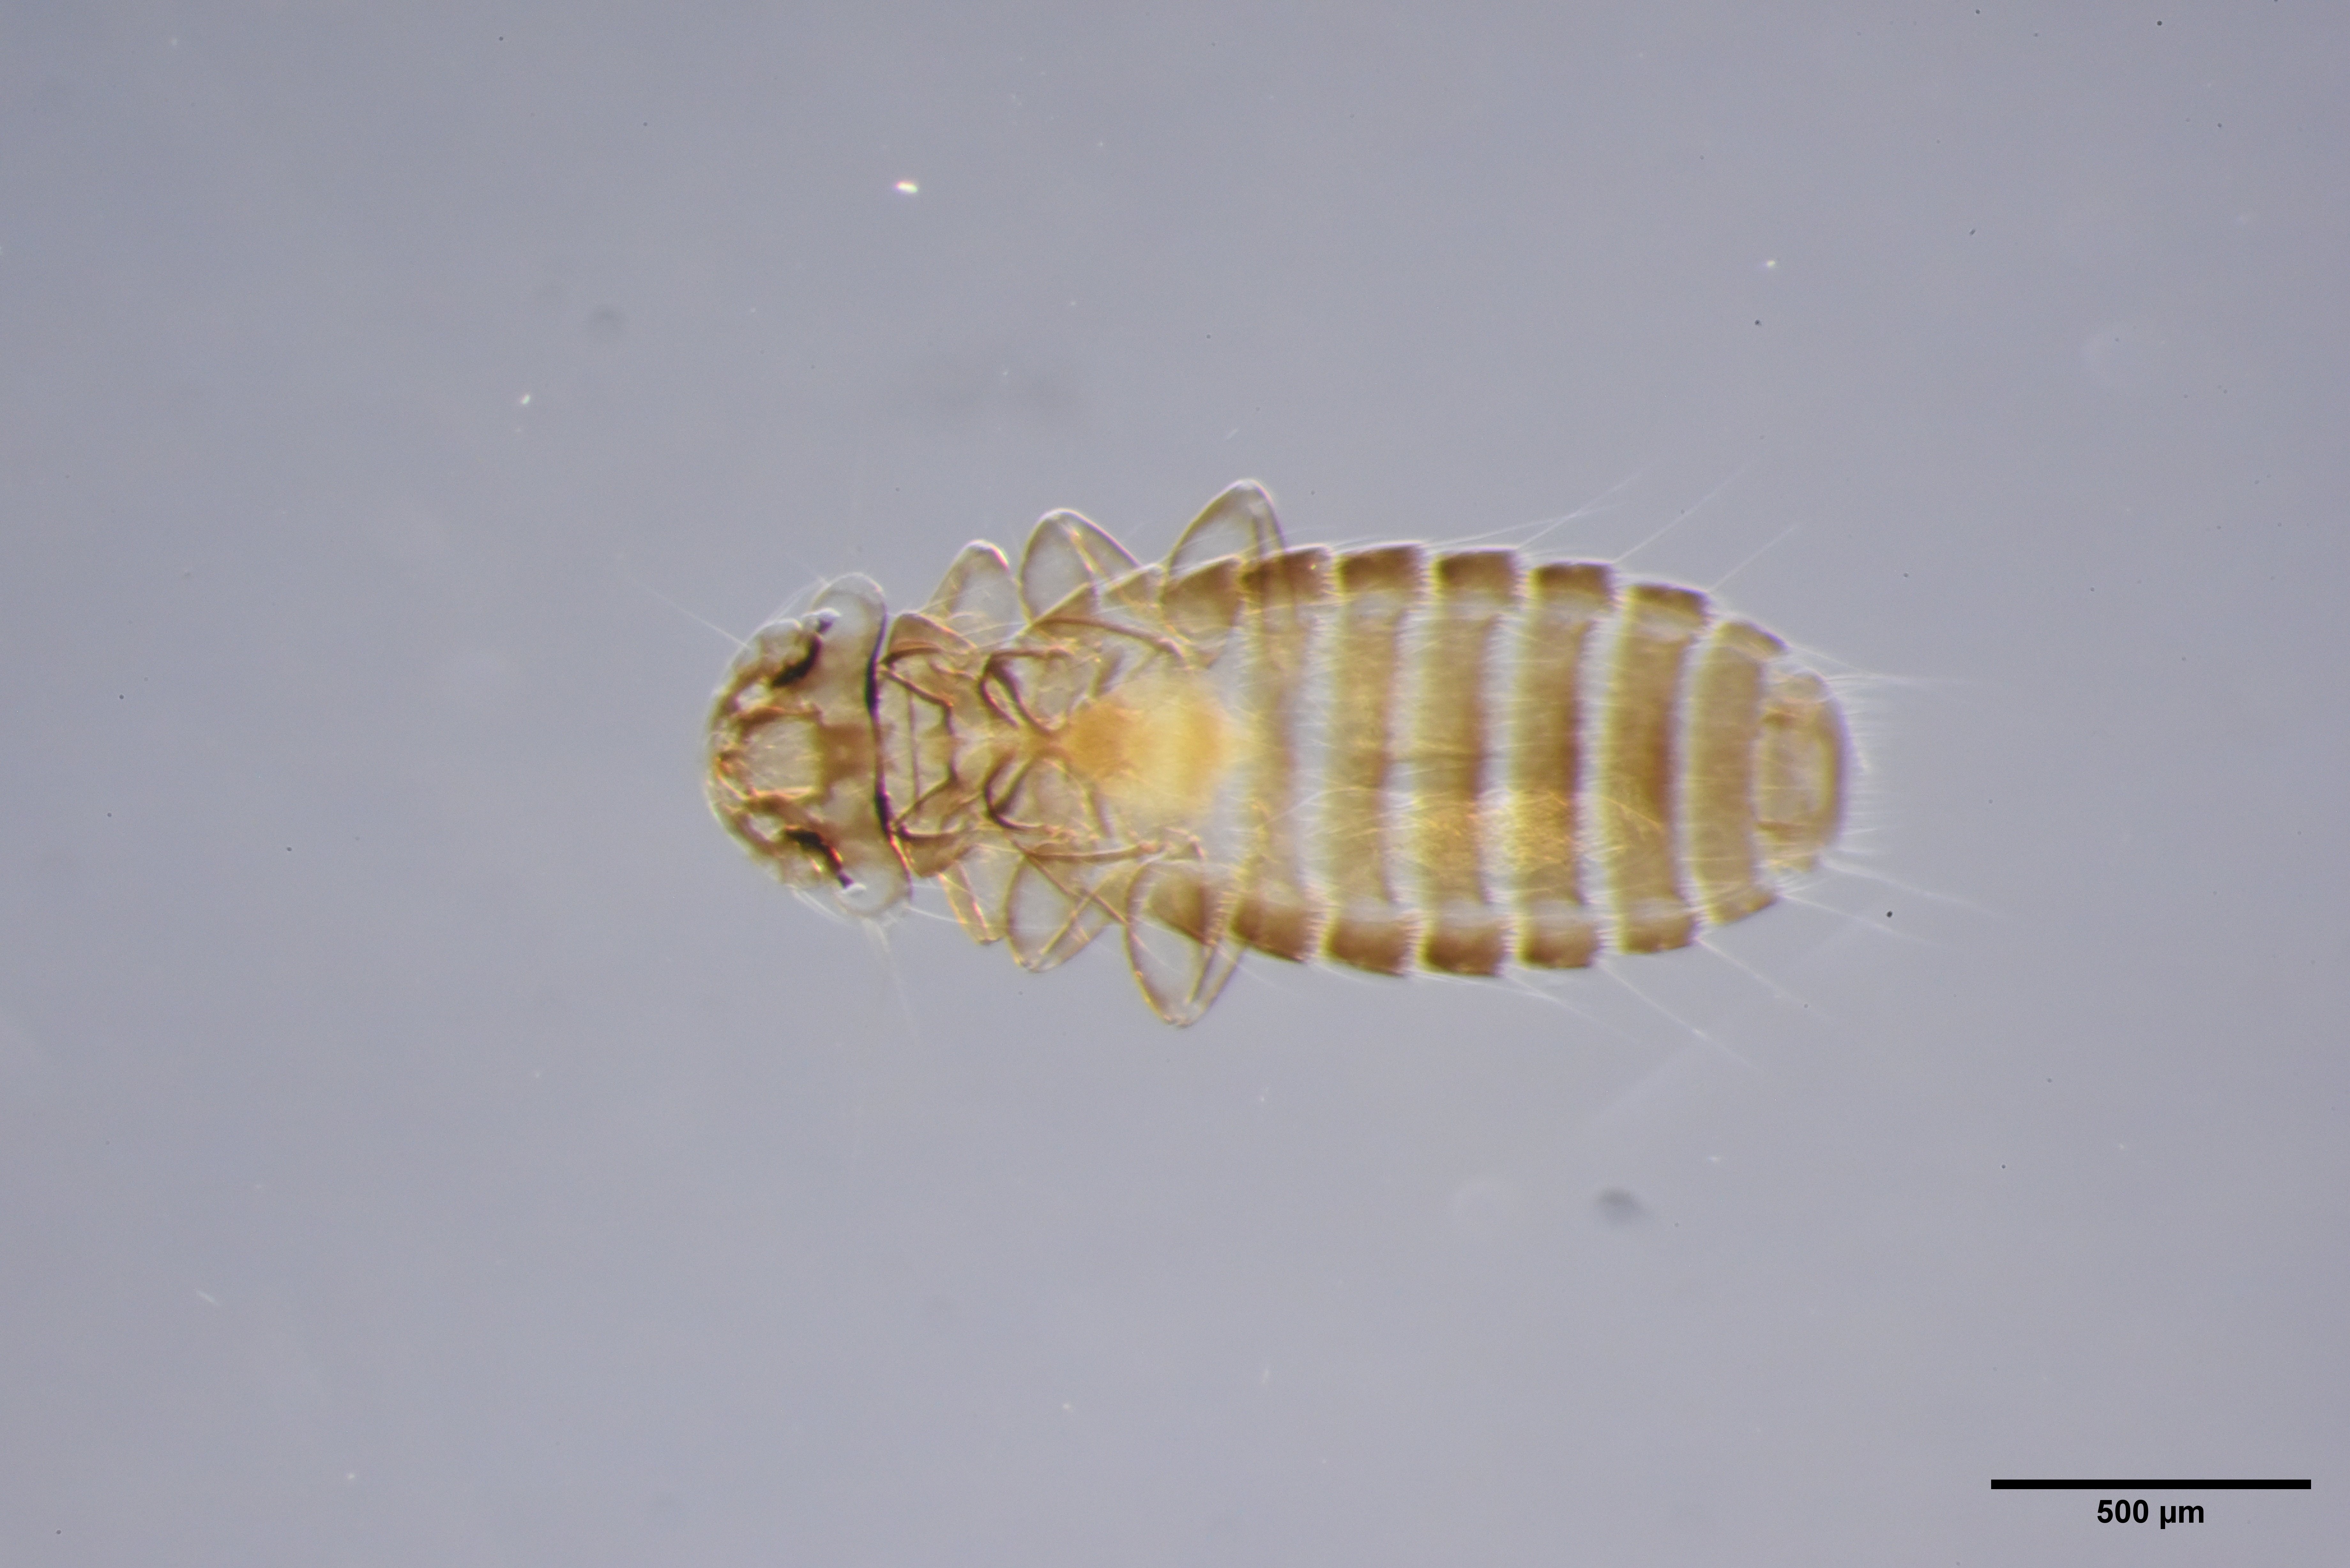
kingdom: Animalia
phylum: Arthropoda
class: Insecta
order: Psocodea
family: Menoponidae
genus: Menacanthus
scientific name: Menacanthus eurysternus
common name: Louse
